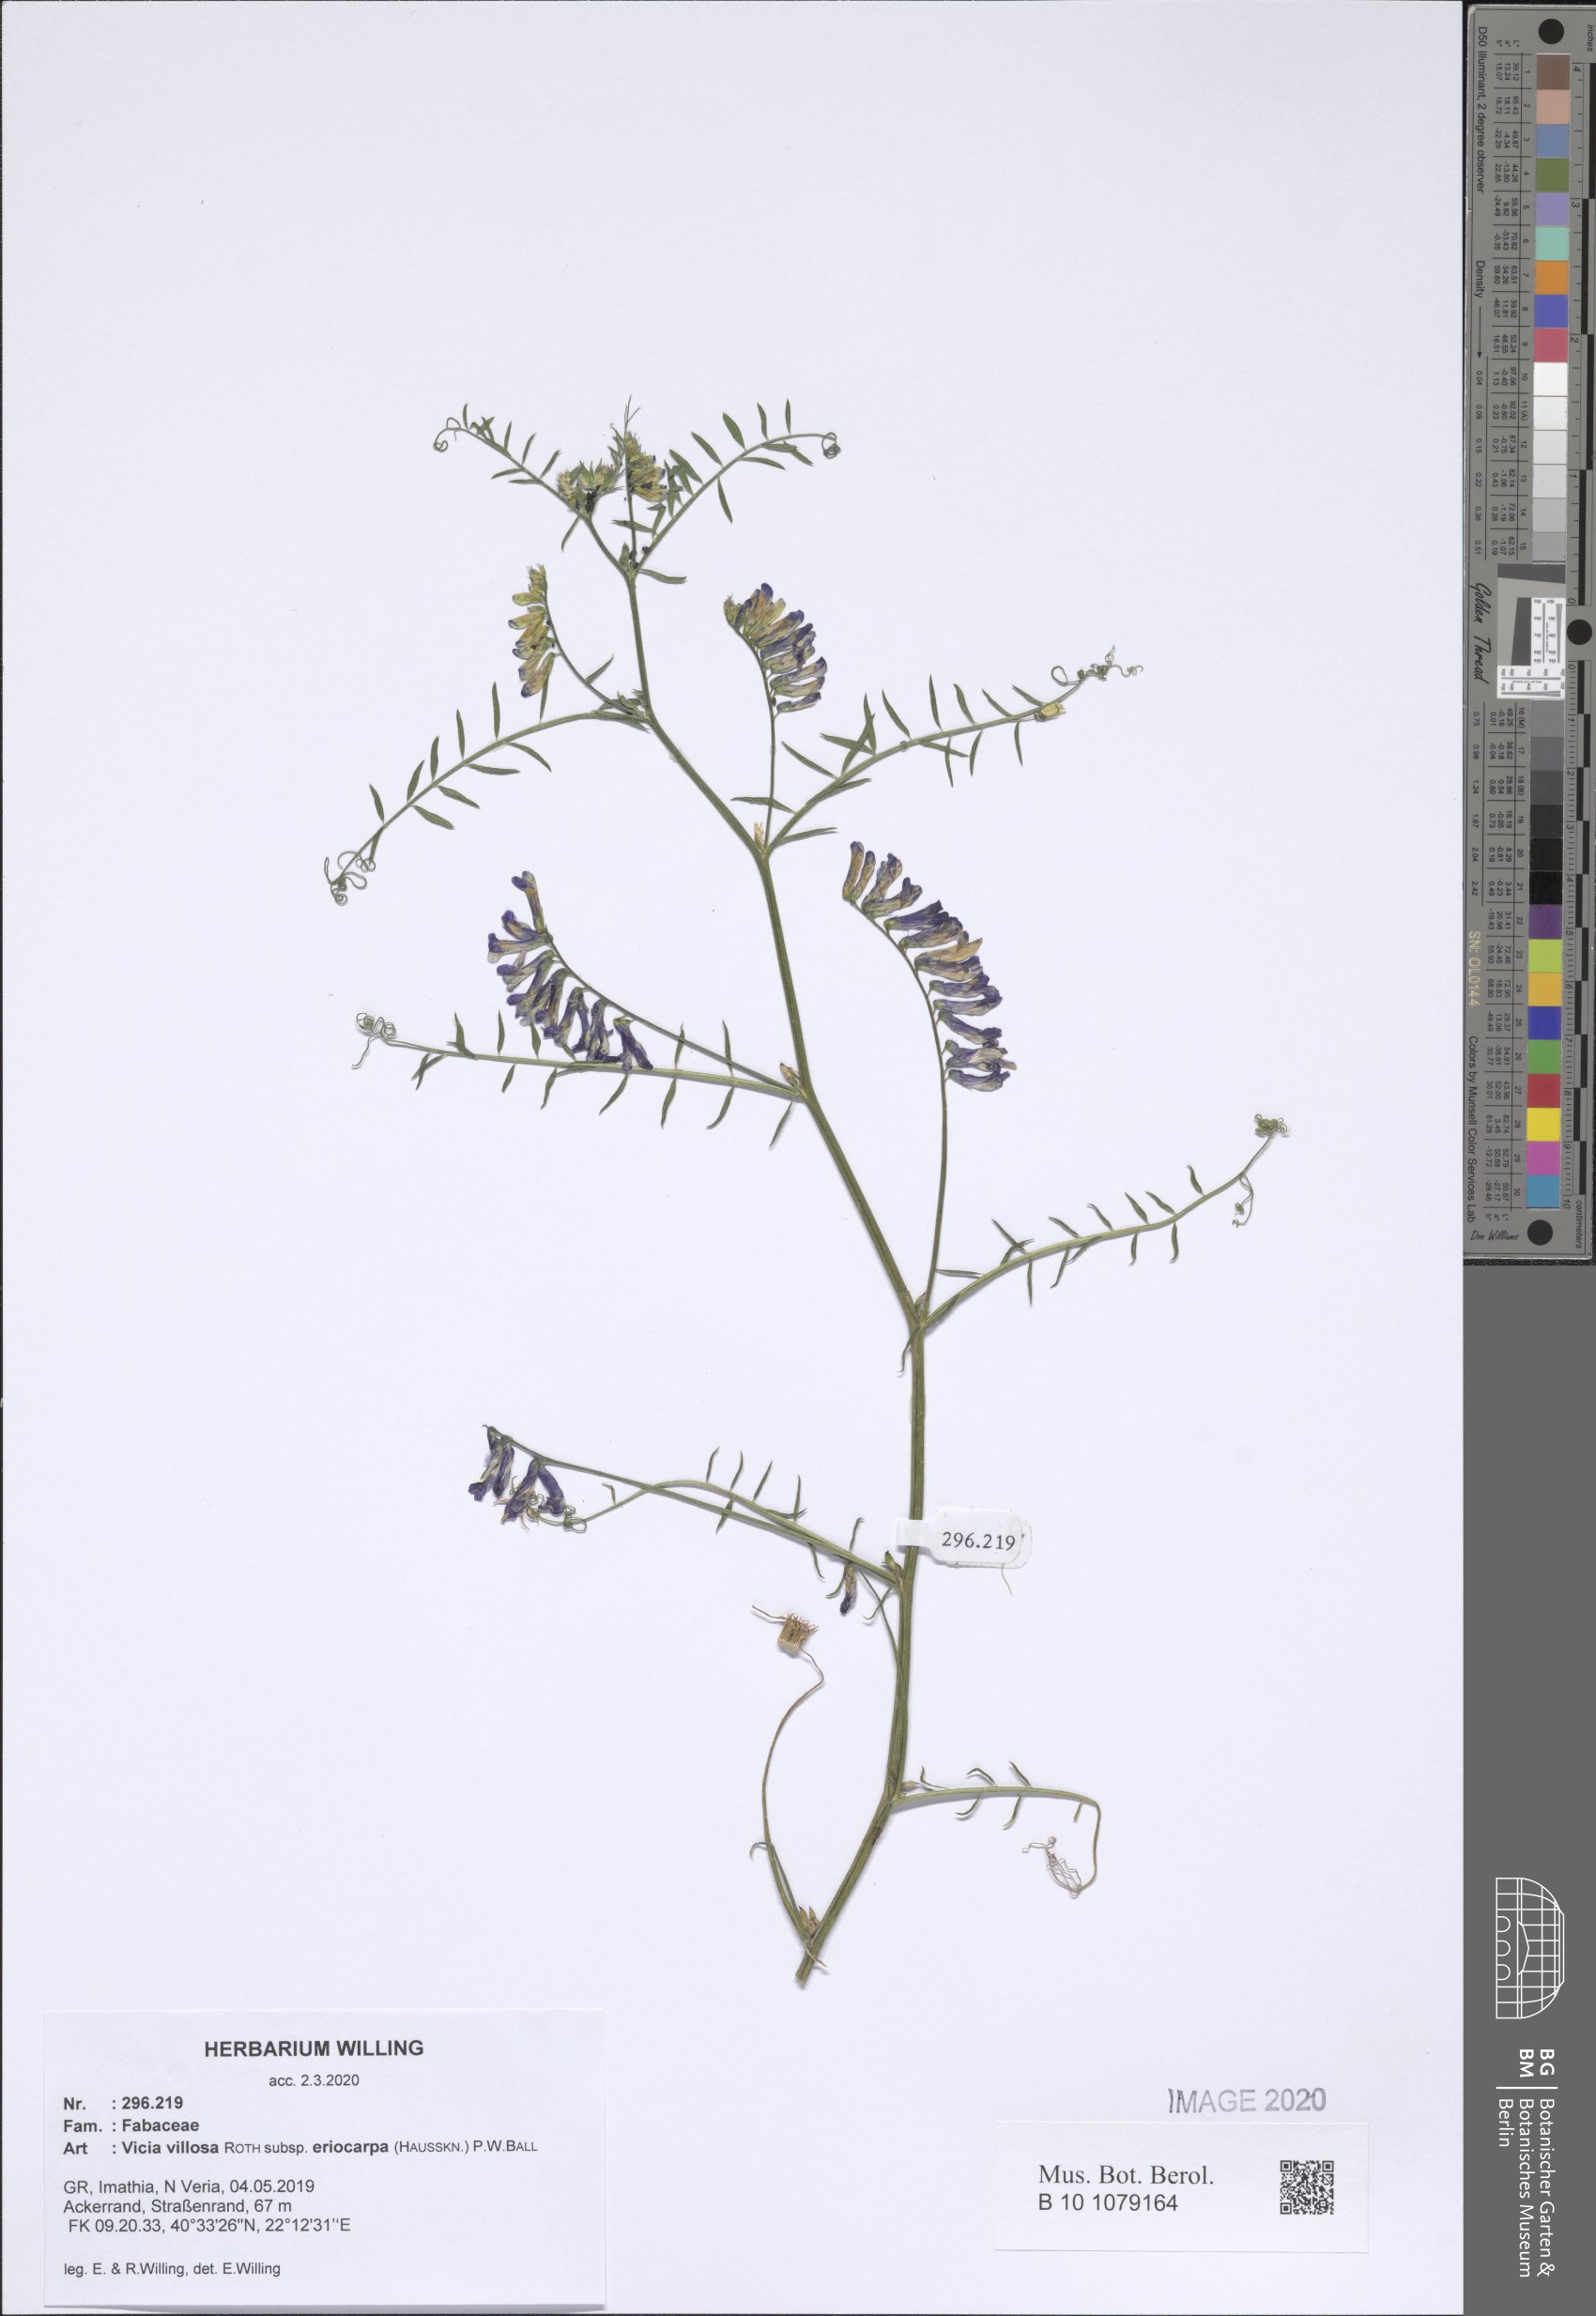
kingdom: Plantae
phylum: Tracheophyta
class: Magnoliopsida
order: Fabales
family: Fabaceae
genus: Vicia
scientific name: Vicia eriocarpa
